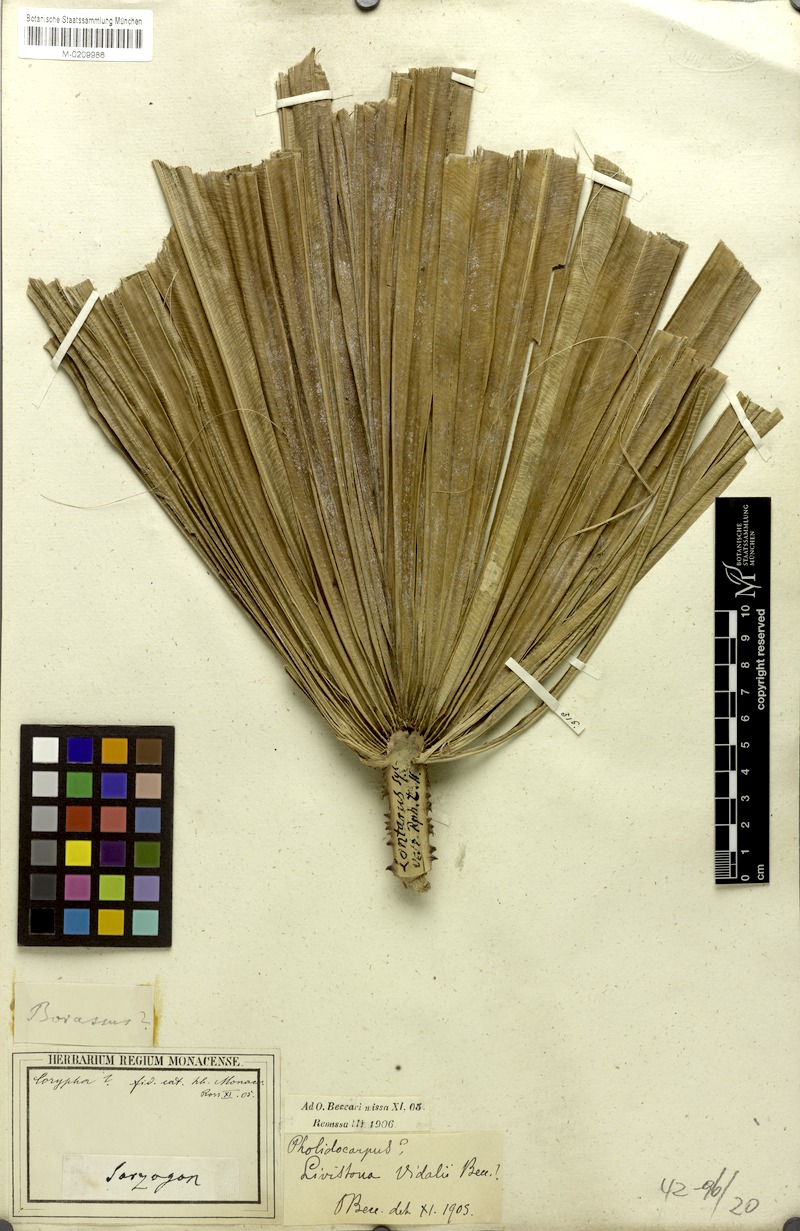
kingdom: Plantae
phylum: Tracheophyta
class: Liliopsida
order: Arecales
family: Arecaceae
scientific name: Arecaceae
